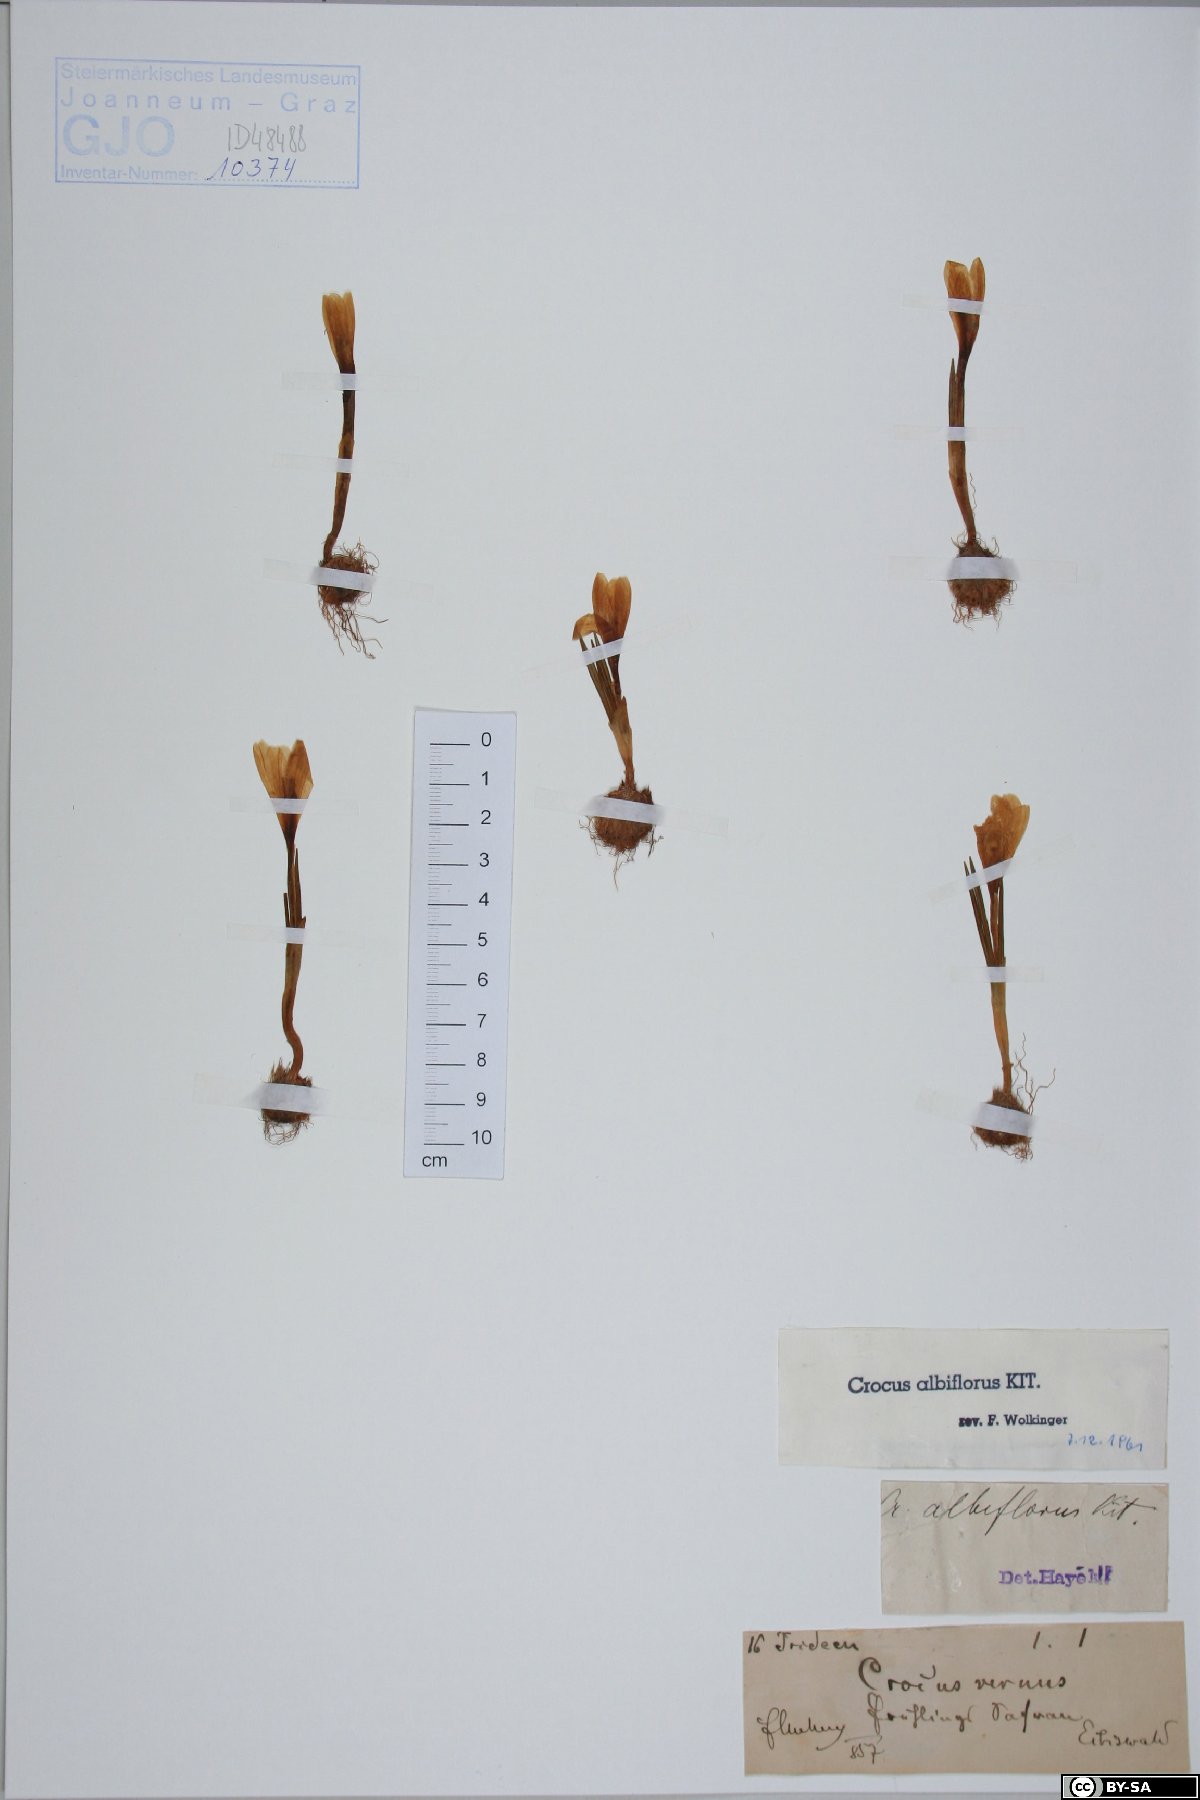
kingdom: Plantae
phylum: Tracheophyta
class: Liliopsida
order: Asparagales
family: Iridaceae
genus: Crocus
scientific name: Crocus vernus
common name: Spring crocus
